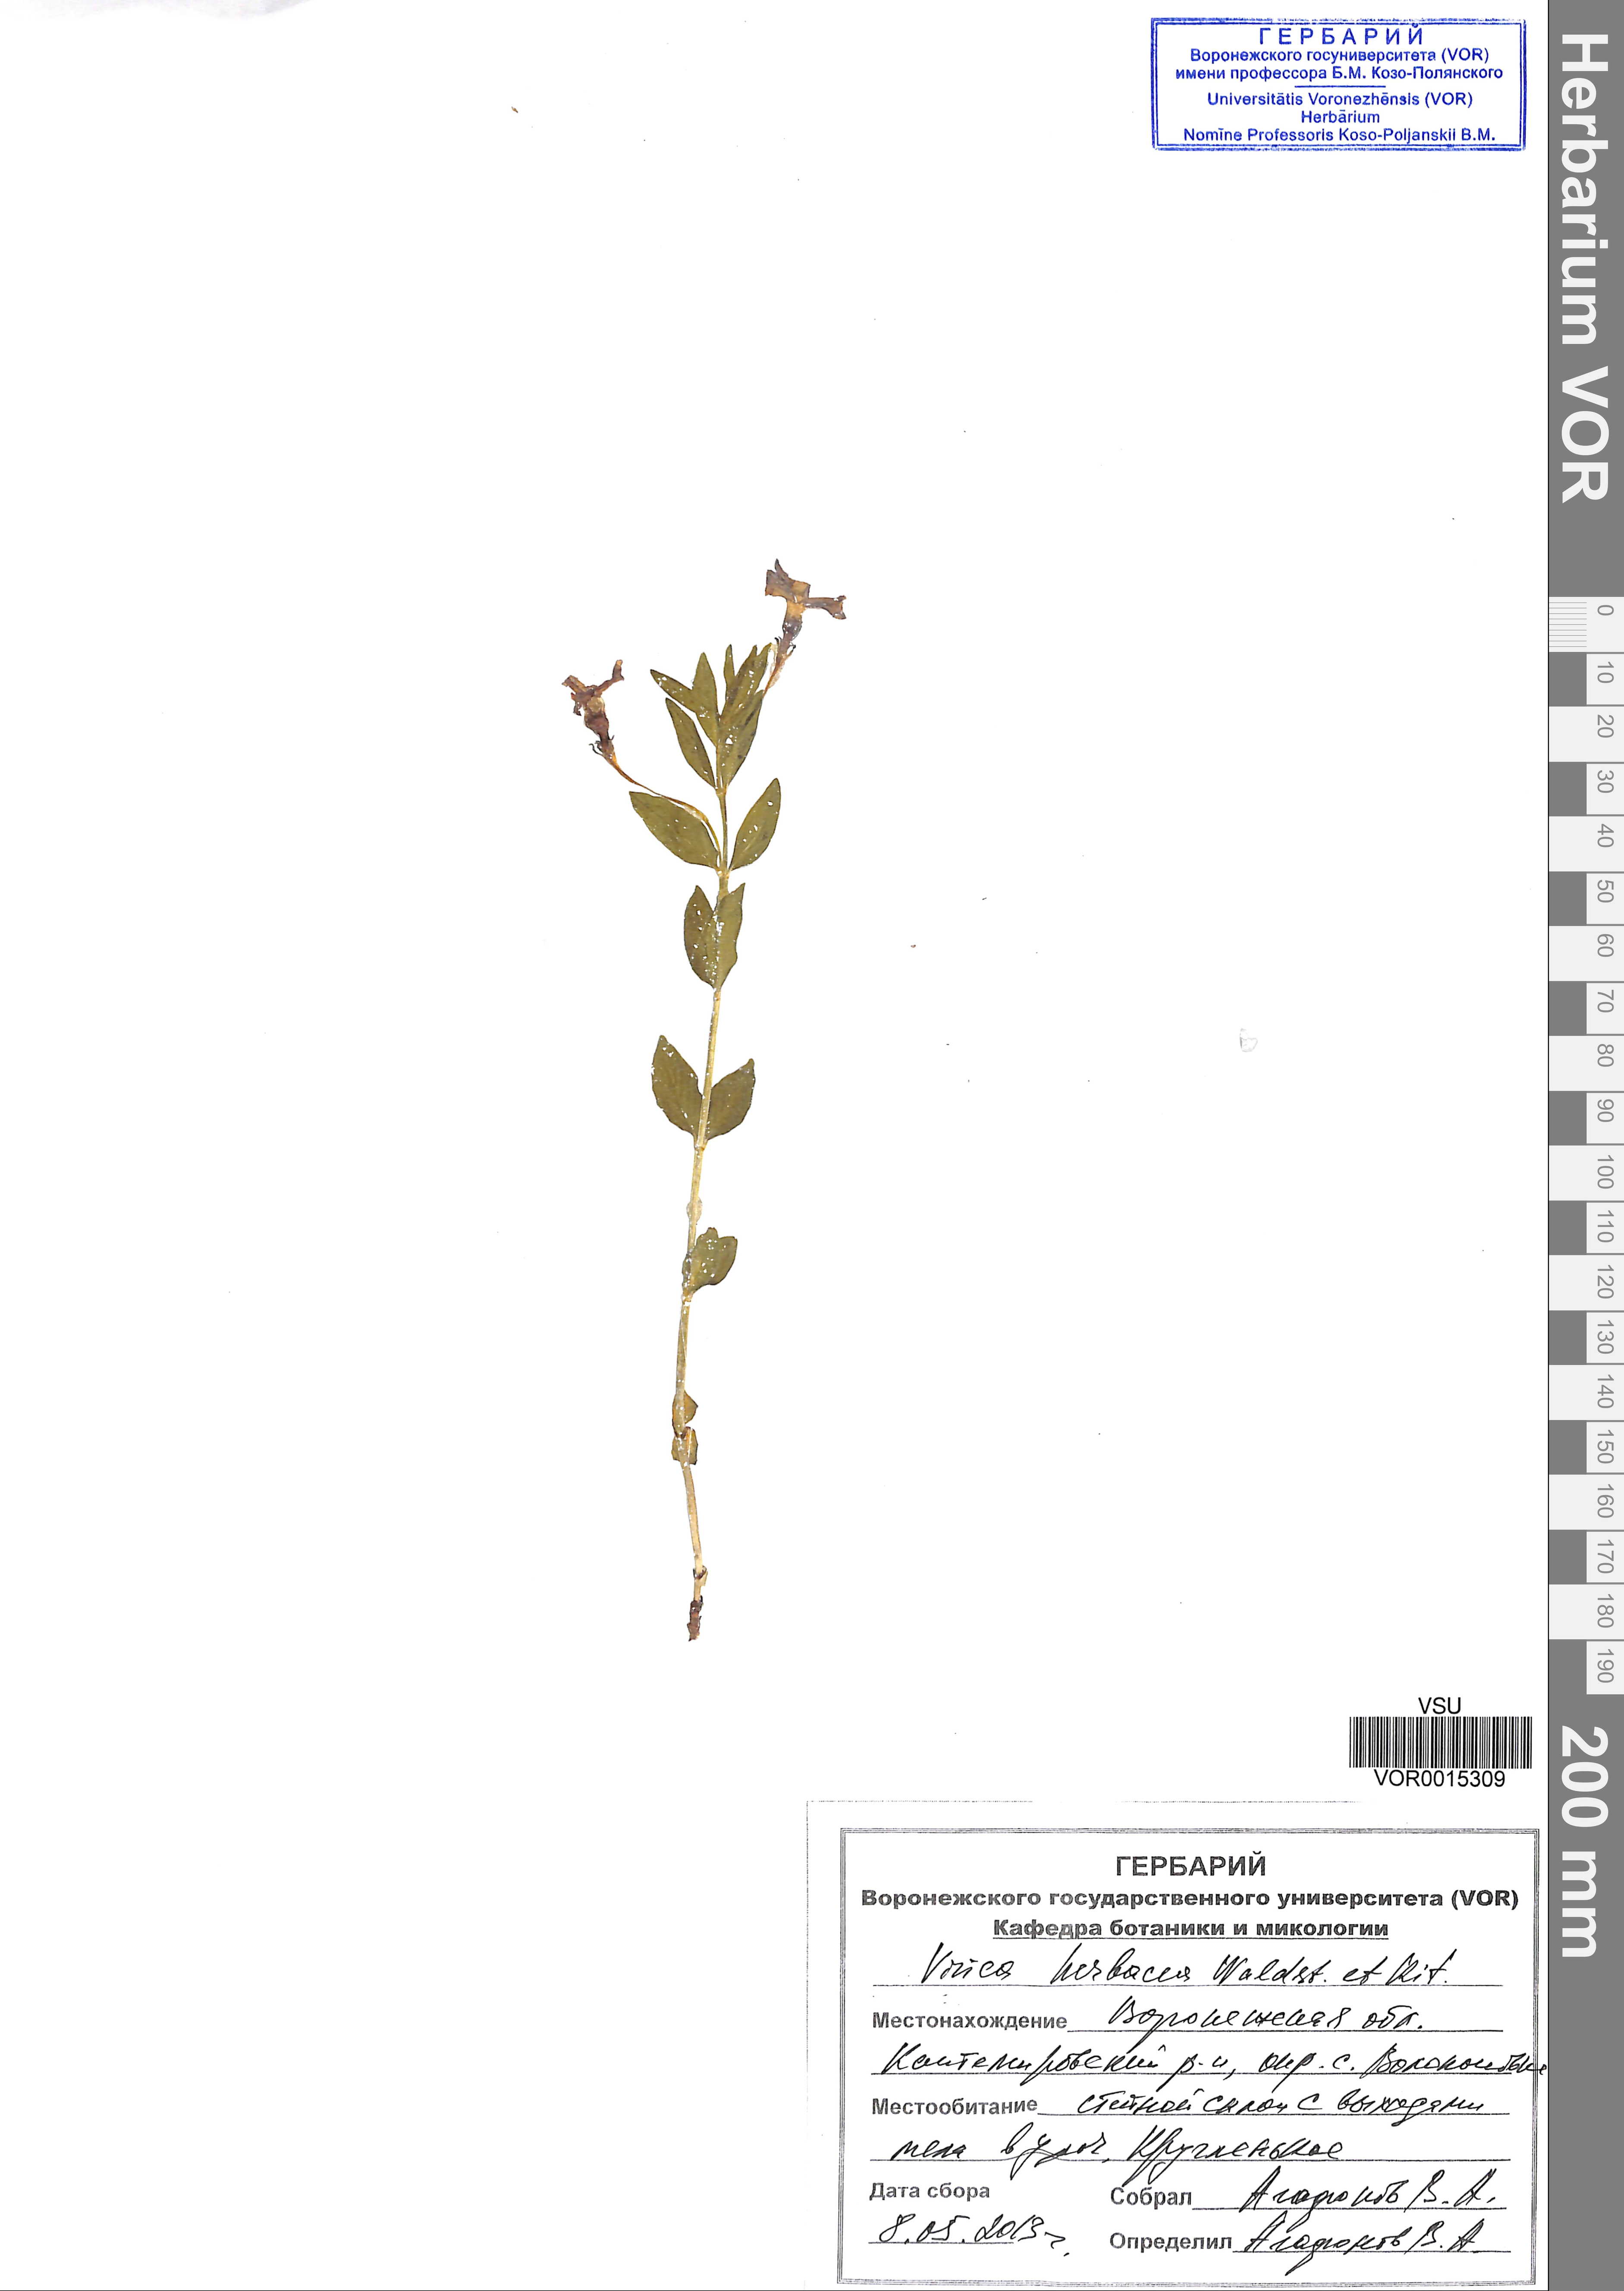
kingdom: Plantae
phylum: Tracheophyta
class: Magnoliopsida
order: Gentianales
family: Apocynaceae
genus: Vinca
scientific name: Vinca herbacea
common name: Herbaceous periwinkle
